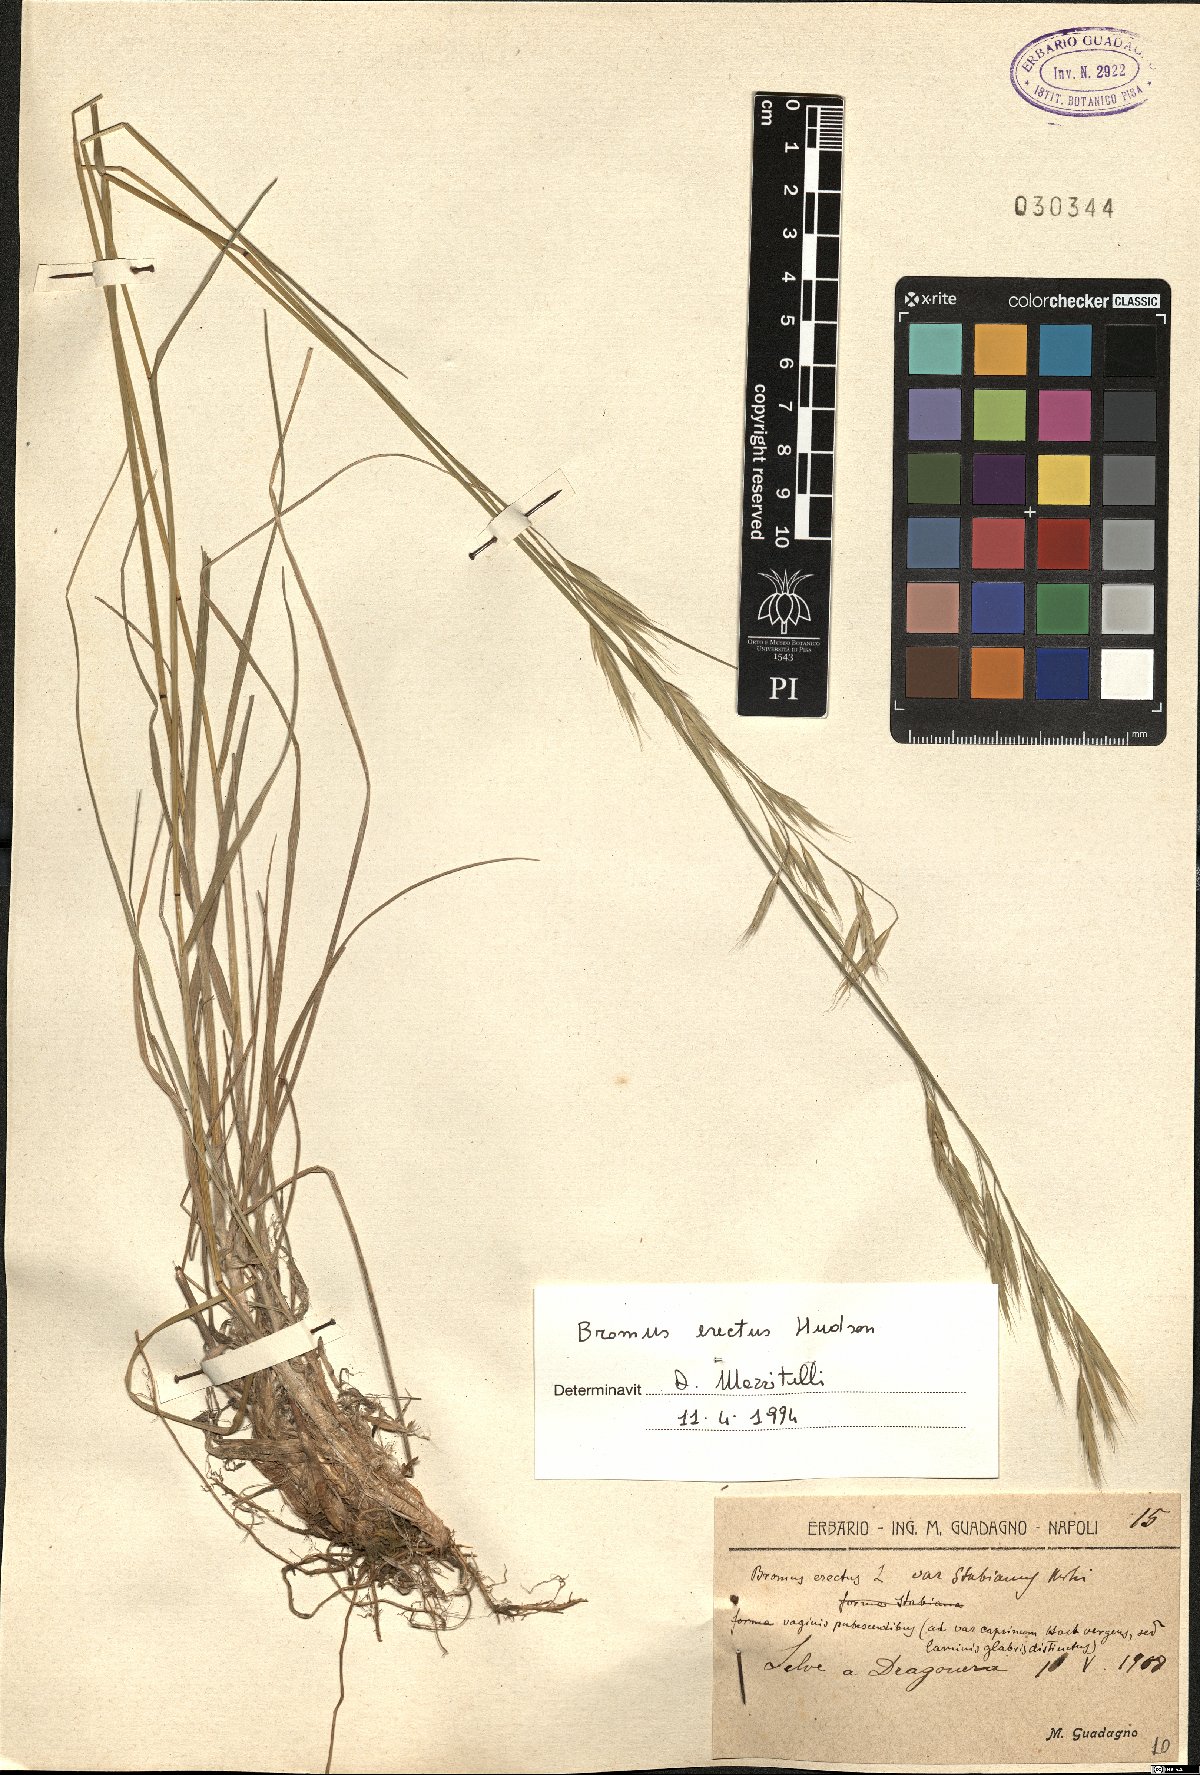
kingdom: Plantae
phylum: Tracheophyta
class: Liliopsida
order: Poales
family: Poaceae
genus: Bromus
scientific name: Bromus erectus
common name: Erect brome
